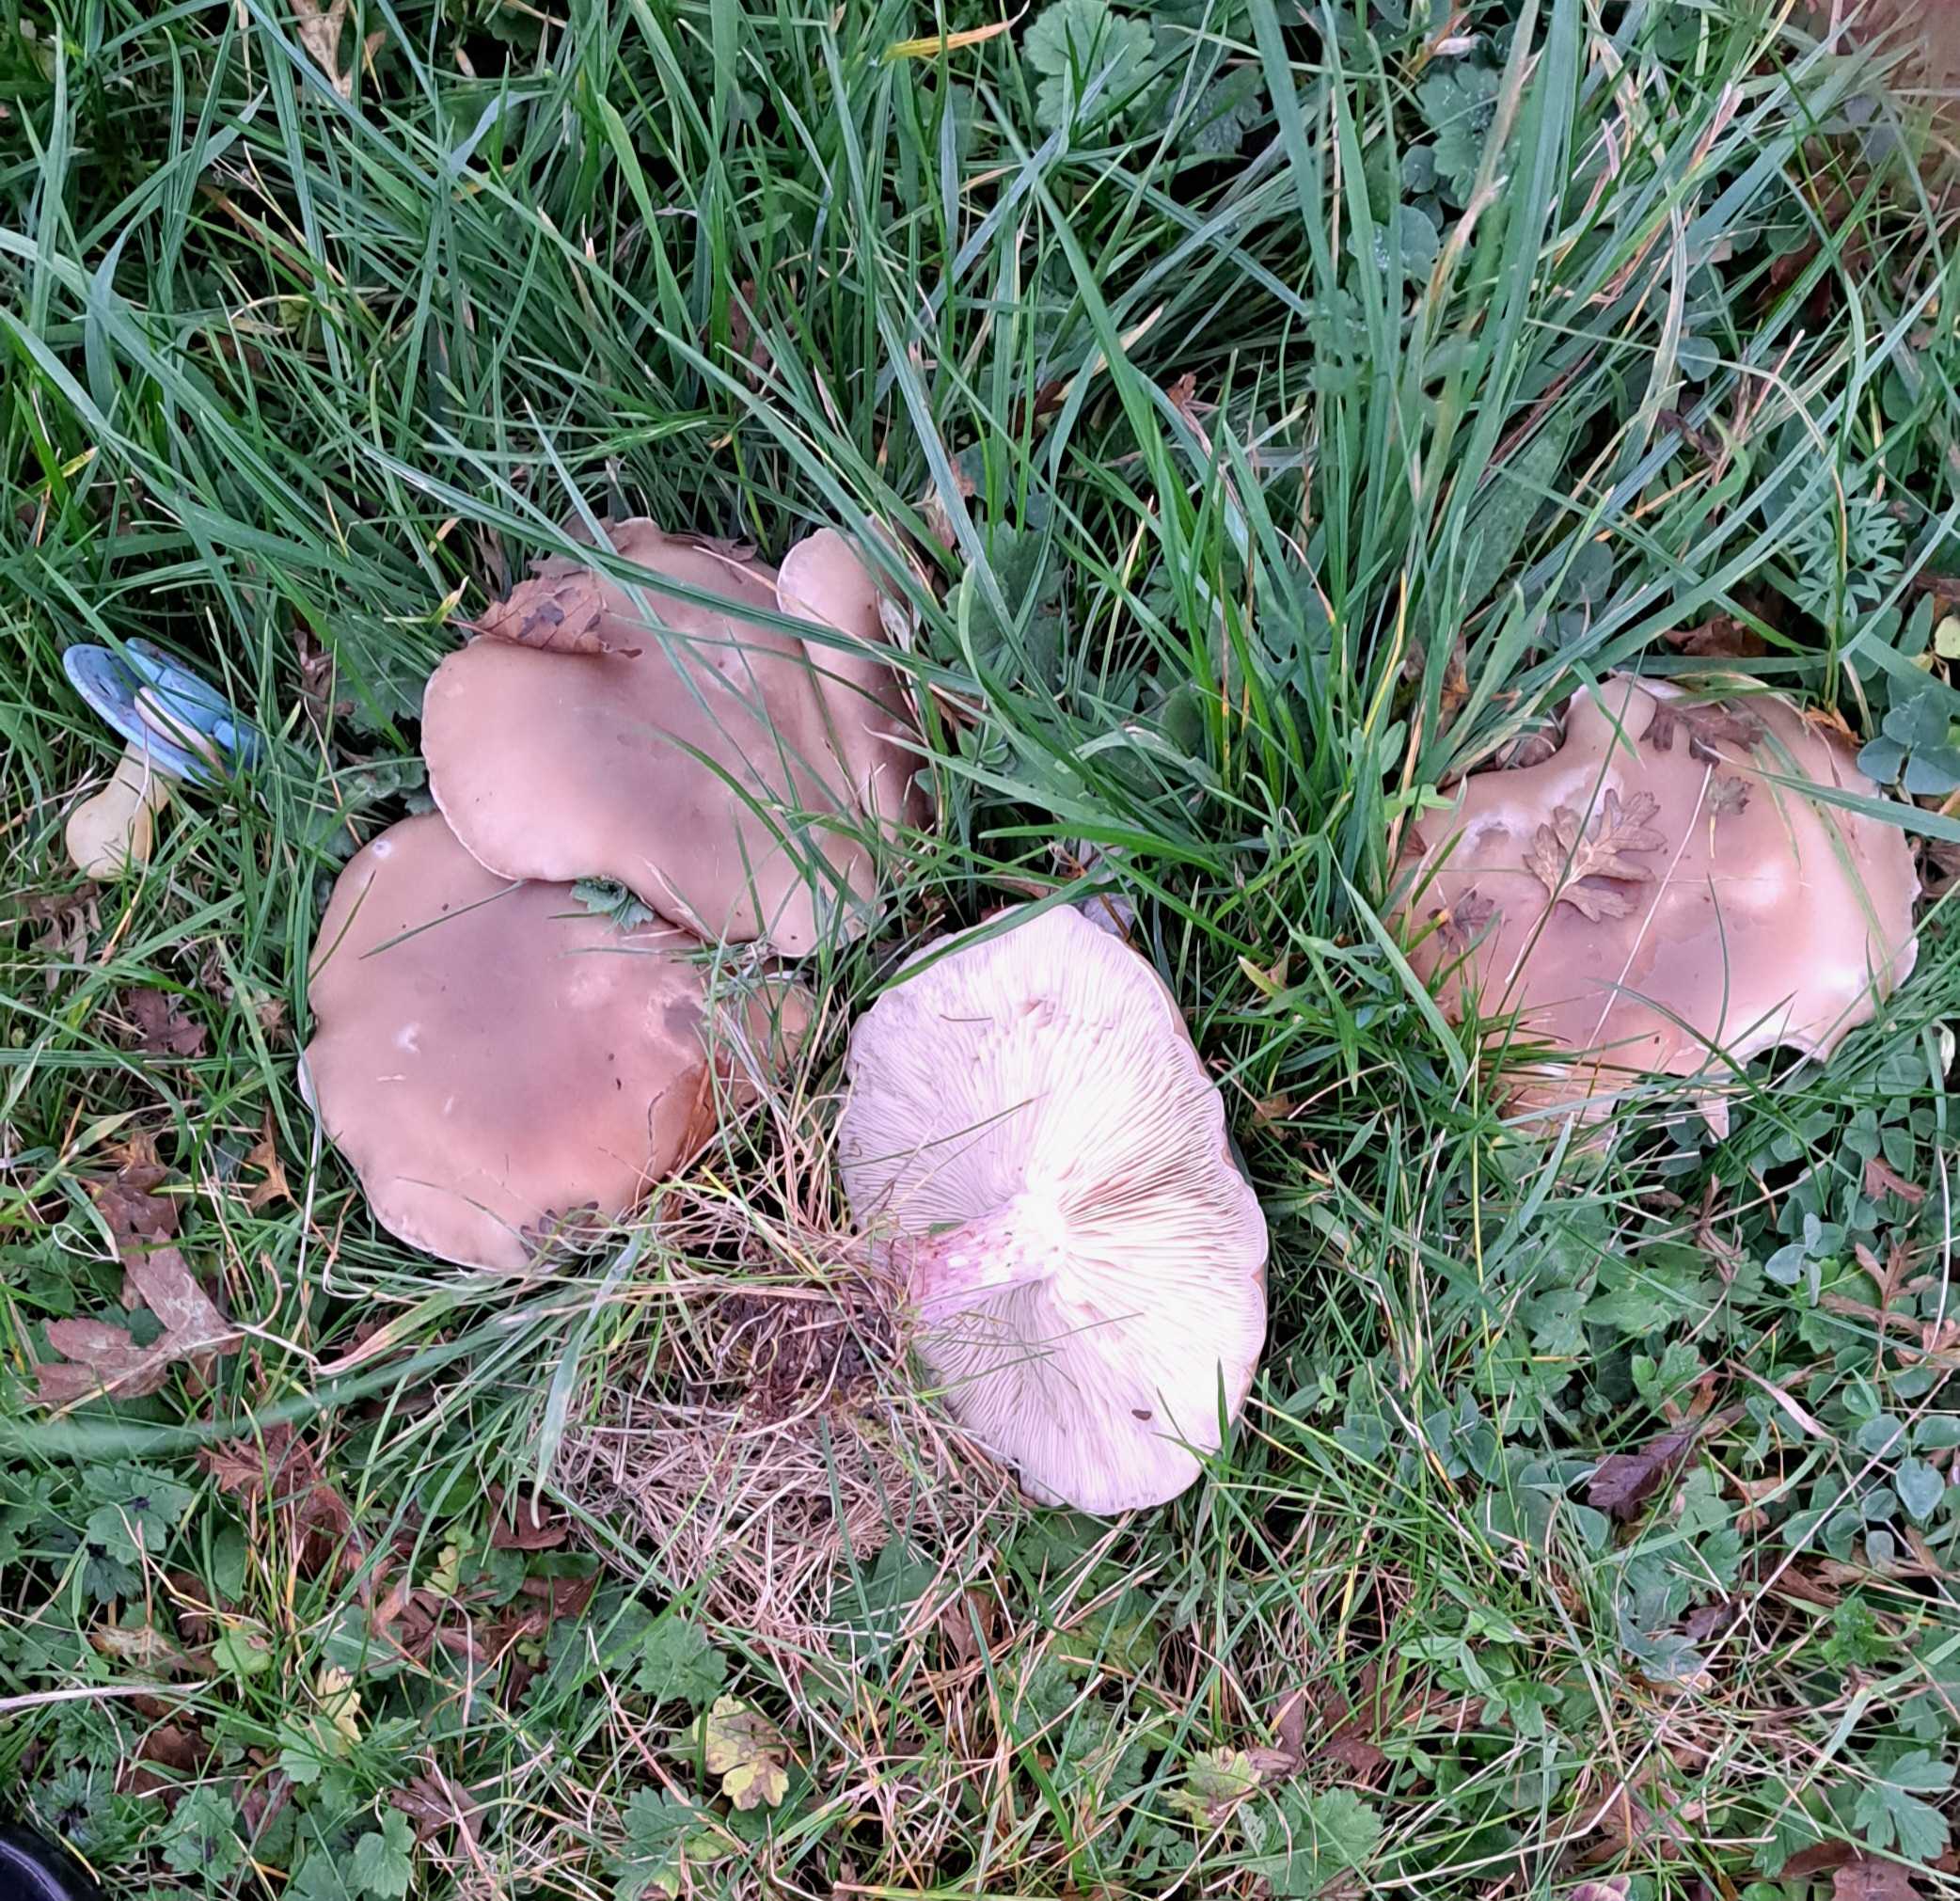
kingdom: Fungi
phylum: Basidiomycota
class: Agaricomycetes
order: Agaricales
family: Tricholomataceae
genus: Lepista
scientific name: Lepista personata
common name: bleg hekseringshat
